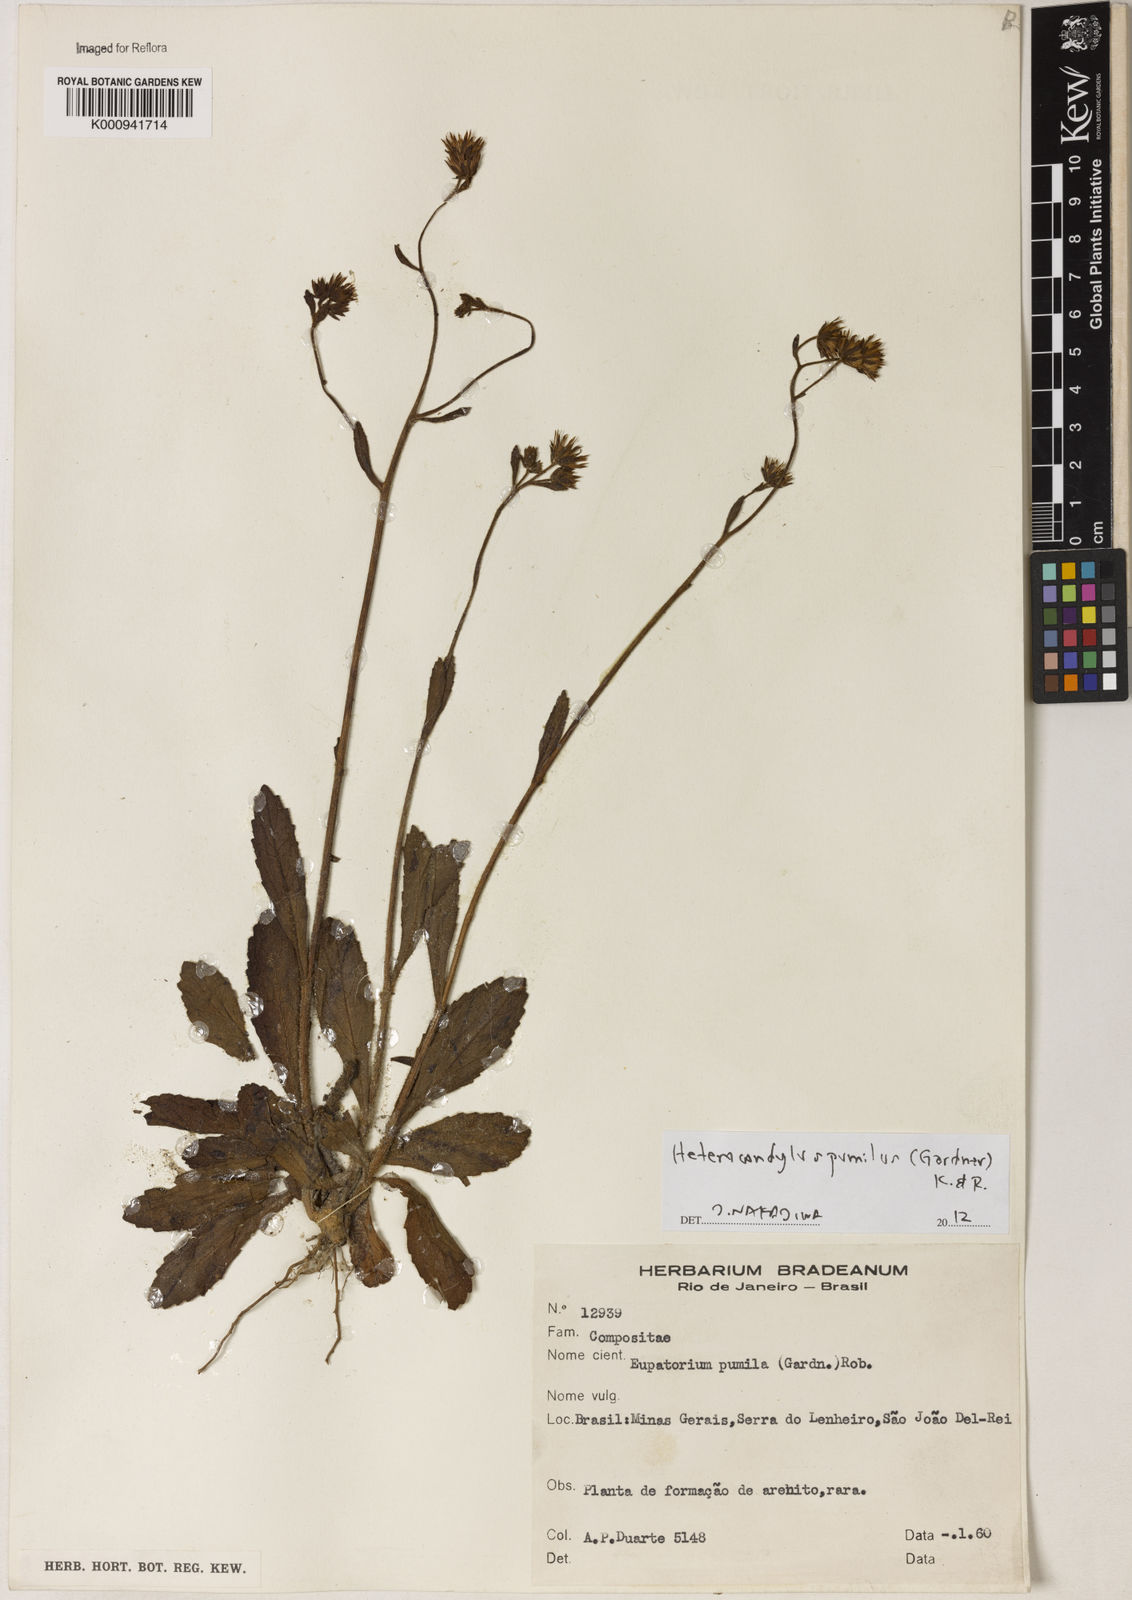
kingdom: Plantae
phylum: Tracheophyta
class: Magnoliopsida
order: Asterales
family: Asteraceae
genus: Heterocondylus
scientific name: Heterocondylus pumilus
